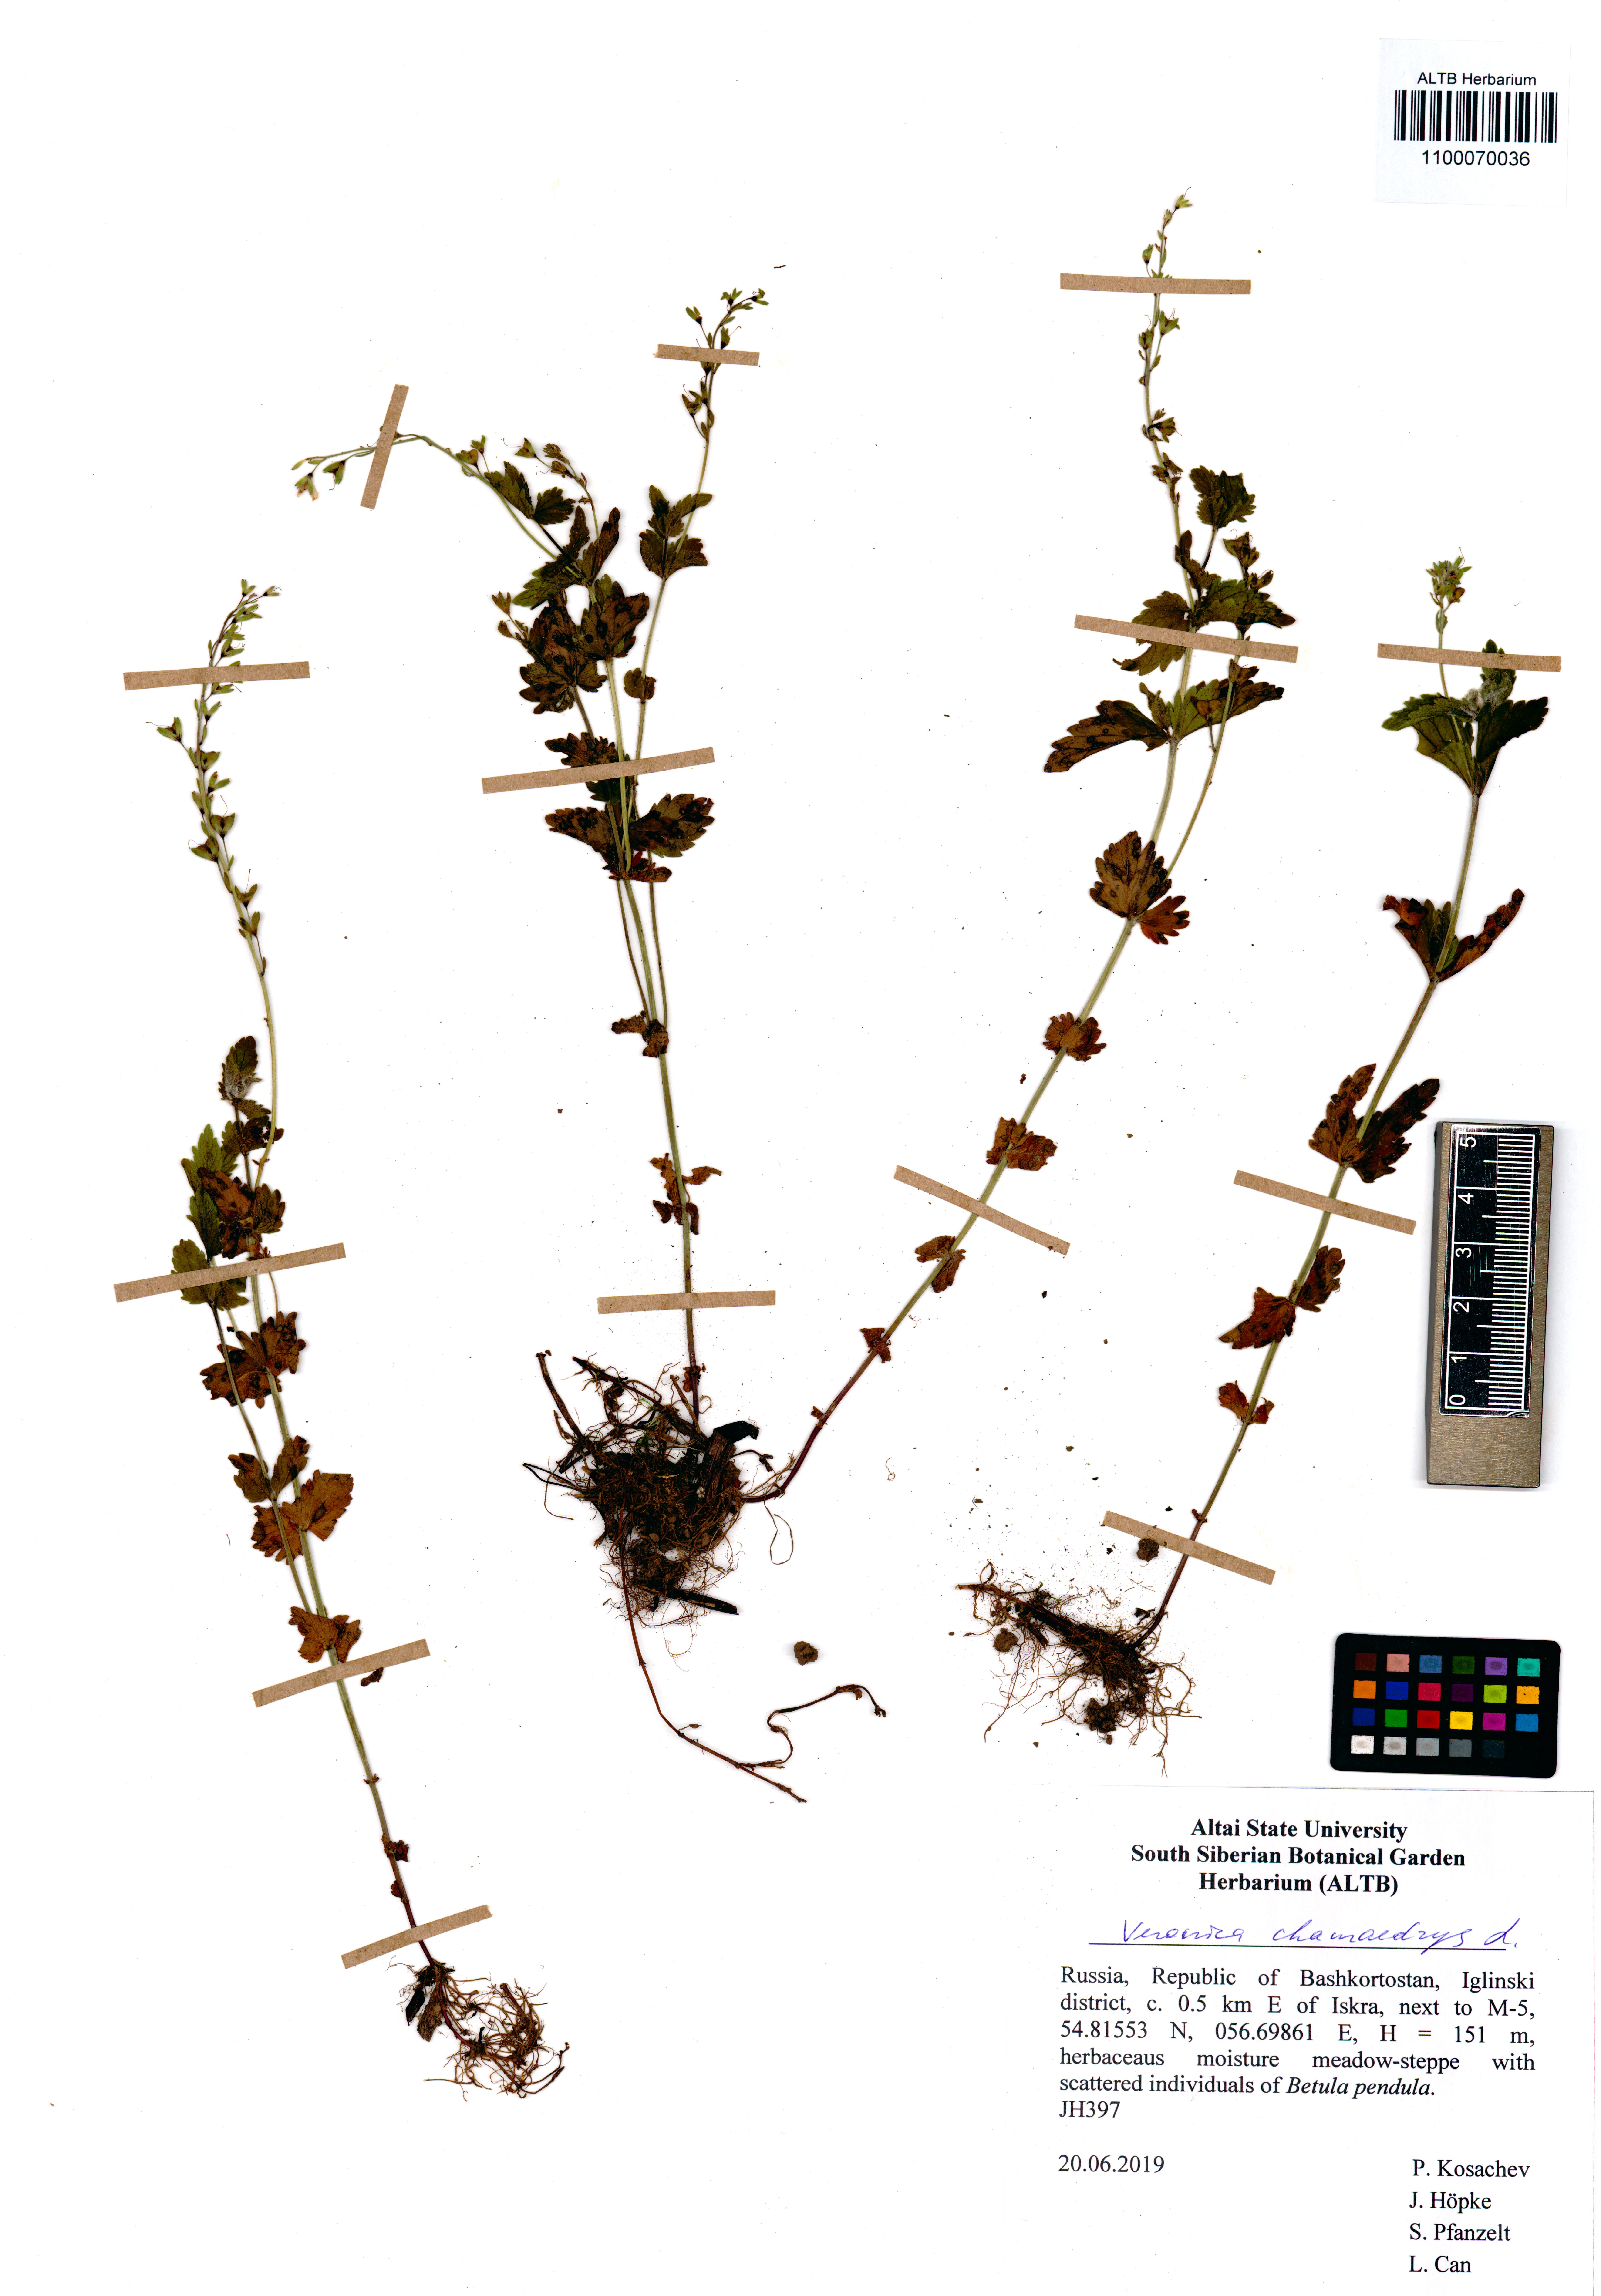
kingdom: Plantae
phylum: Tracheophyta
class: Magnoliopsida
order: Lamiales
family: Plantaginaceae
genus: Veronica
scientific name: Veronica chamaedrys
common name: Germander speedwell
